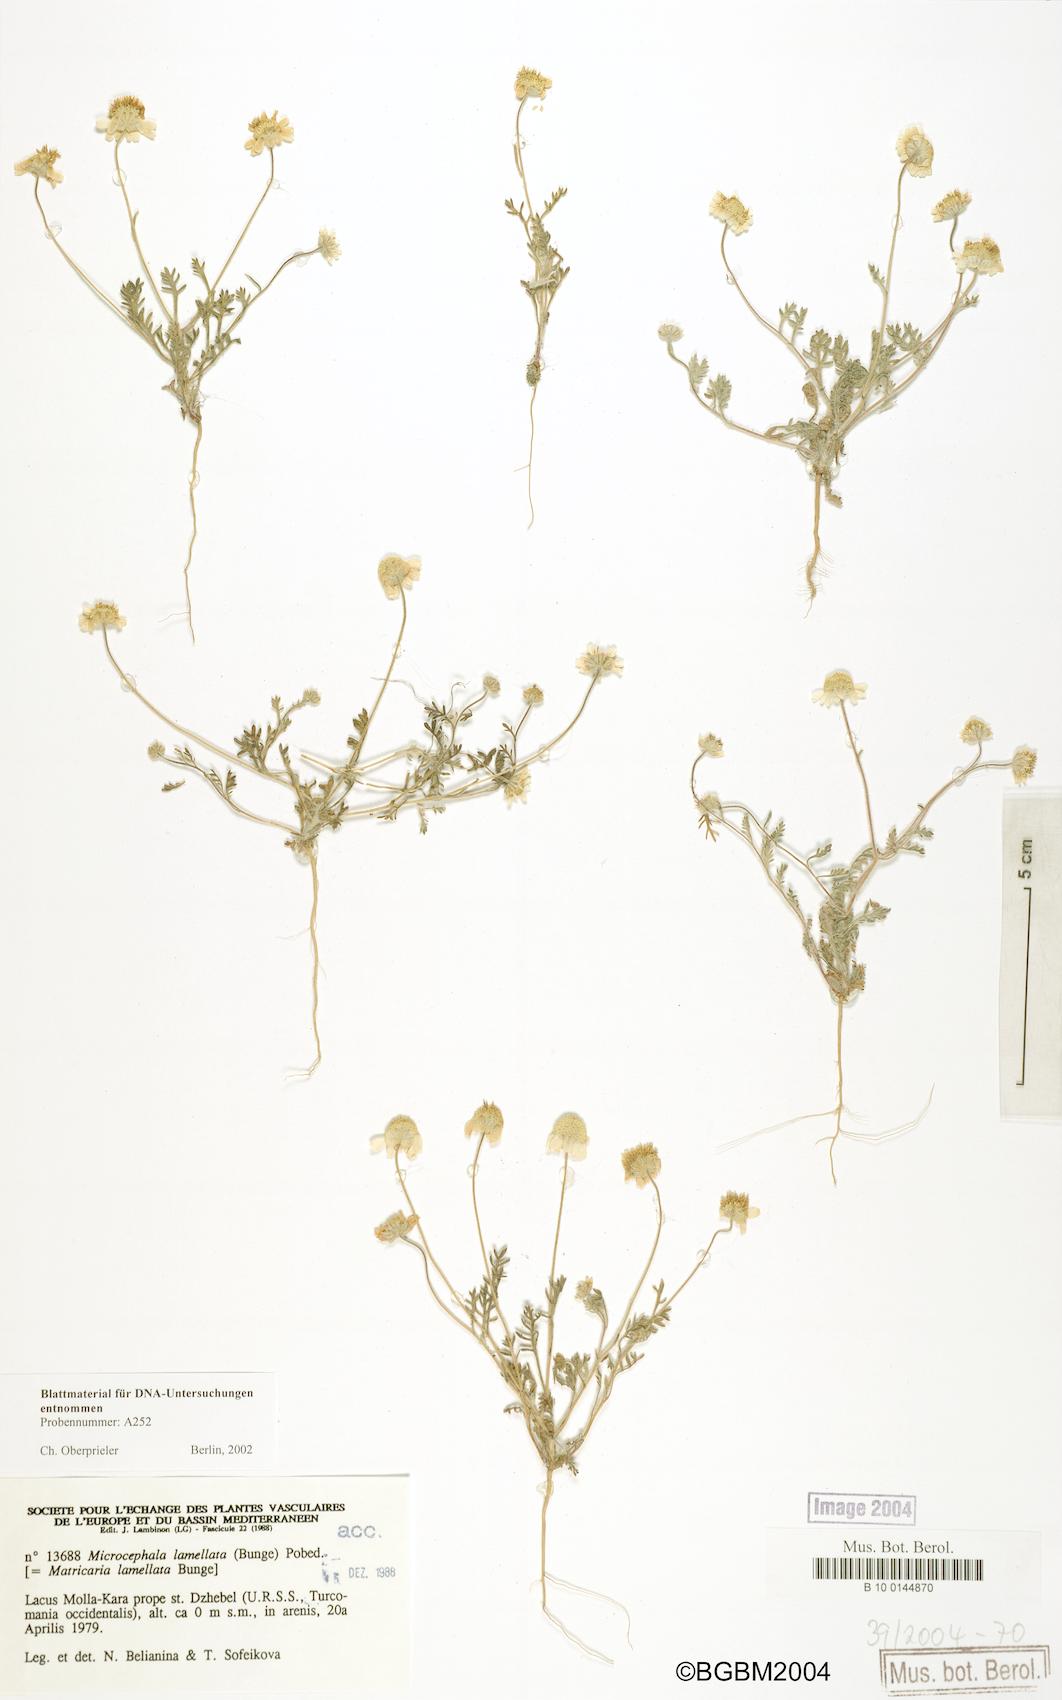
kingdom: Plantae
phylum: Tracheophyta
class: Magnoliopsida
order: Asterales
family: Asteraceae
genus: Microcephala
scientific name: Microcephala lamellata
